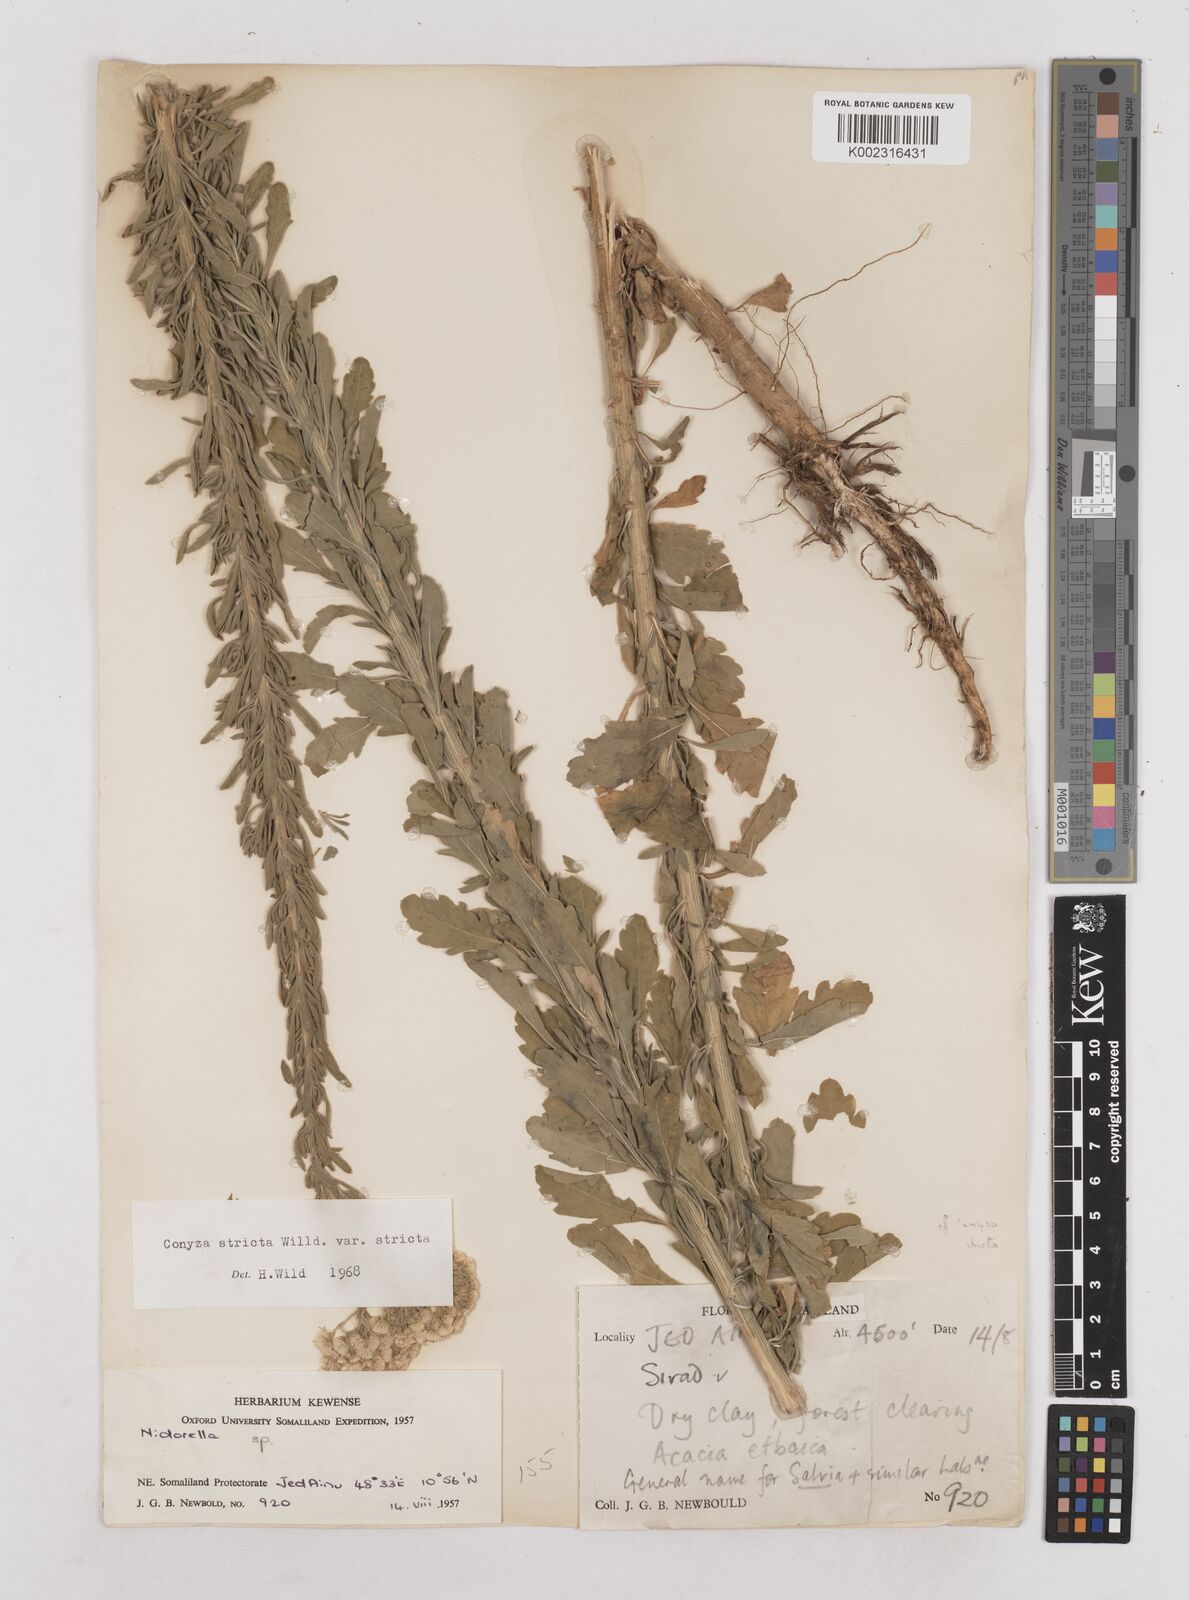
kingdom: Plantae
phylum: Tracheophyta
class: Magnoliopsida
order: Asterales
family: Asteraceae
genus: Nidorella
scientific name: Nidorella triloba
